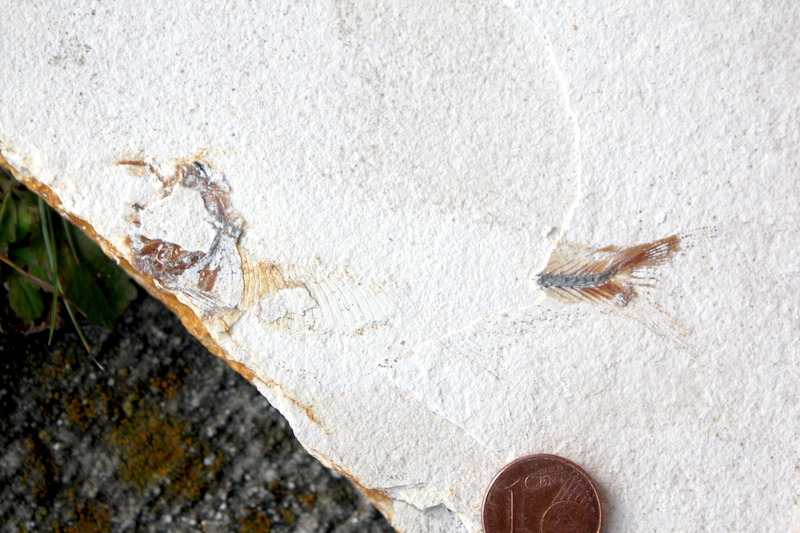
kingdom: Animalia
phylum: Chordata
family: Ascalaboidae
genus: Ebertichthys
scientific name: Ebertichthys ettlingensis
